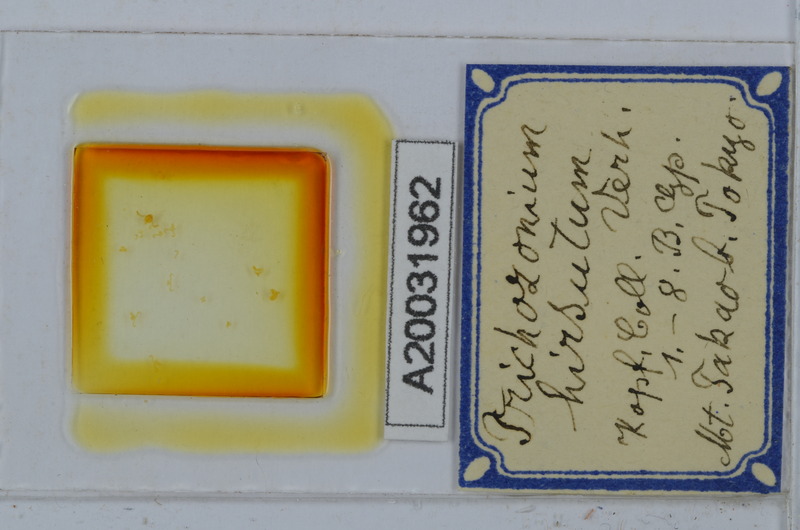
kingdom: Animalia
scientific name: Animalia
